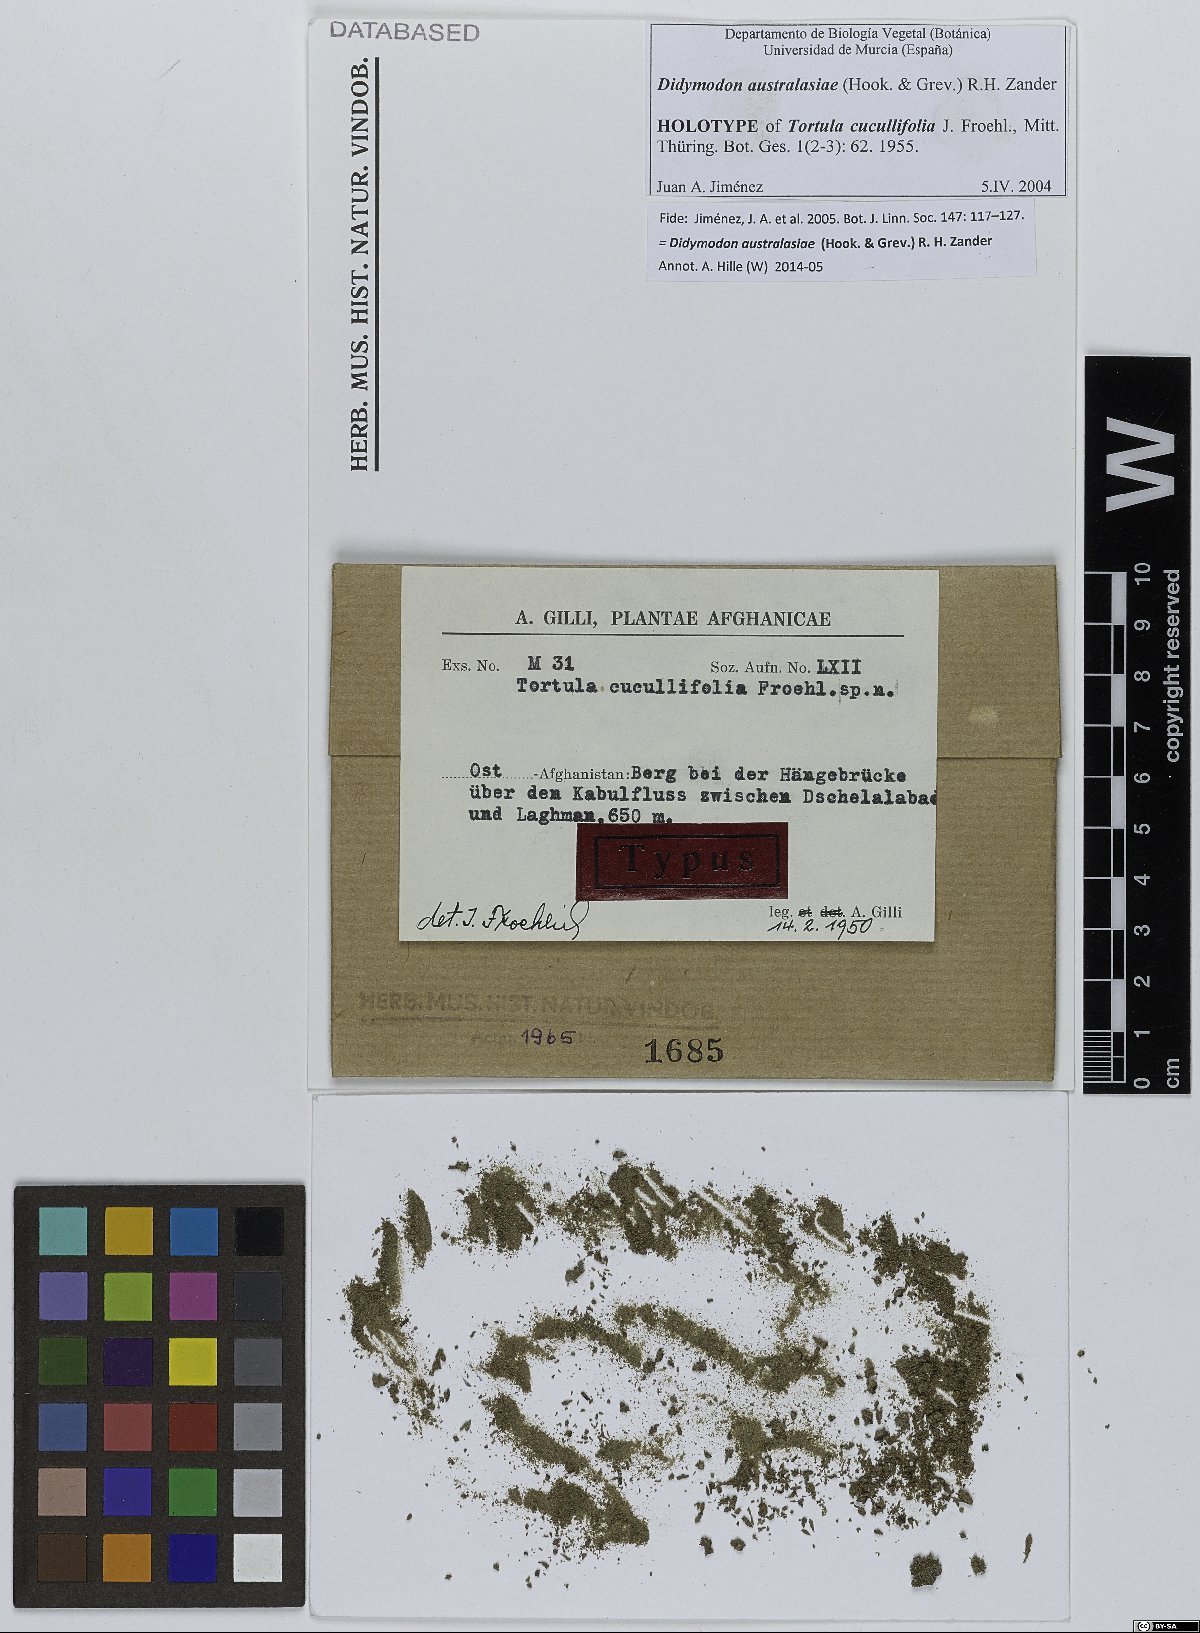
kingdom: Plantae
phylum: Bryophyta
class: Bryopsida
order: Pottiales
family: Pottiaceae
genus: Trichostomopsis
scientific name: Trichostomopsis australasiae
